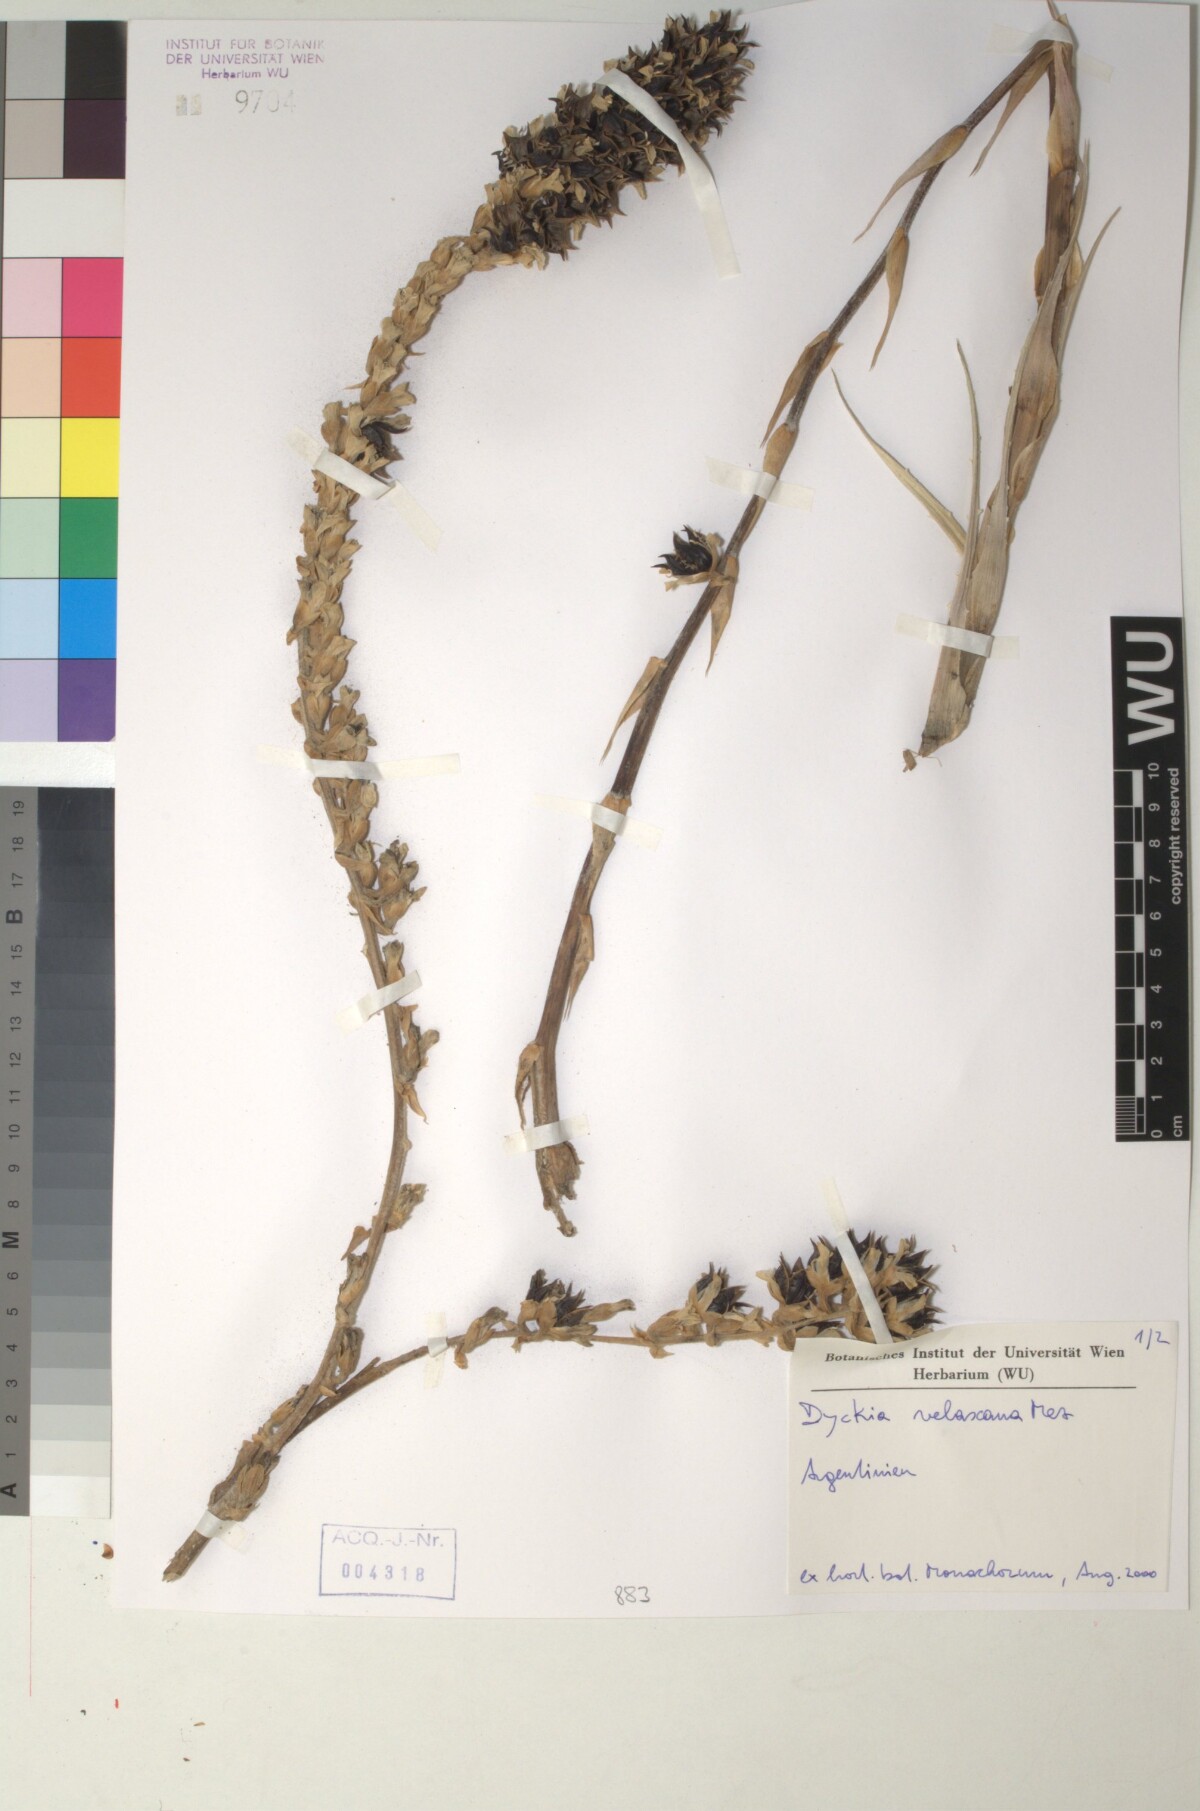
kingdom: Plantae
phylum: Tracheophyta
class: Liliopsida
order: Poales
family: Bromeliaceae
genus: Dyckia
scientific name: Dyckia velascana
